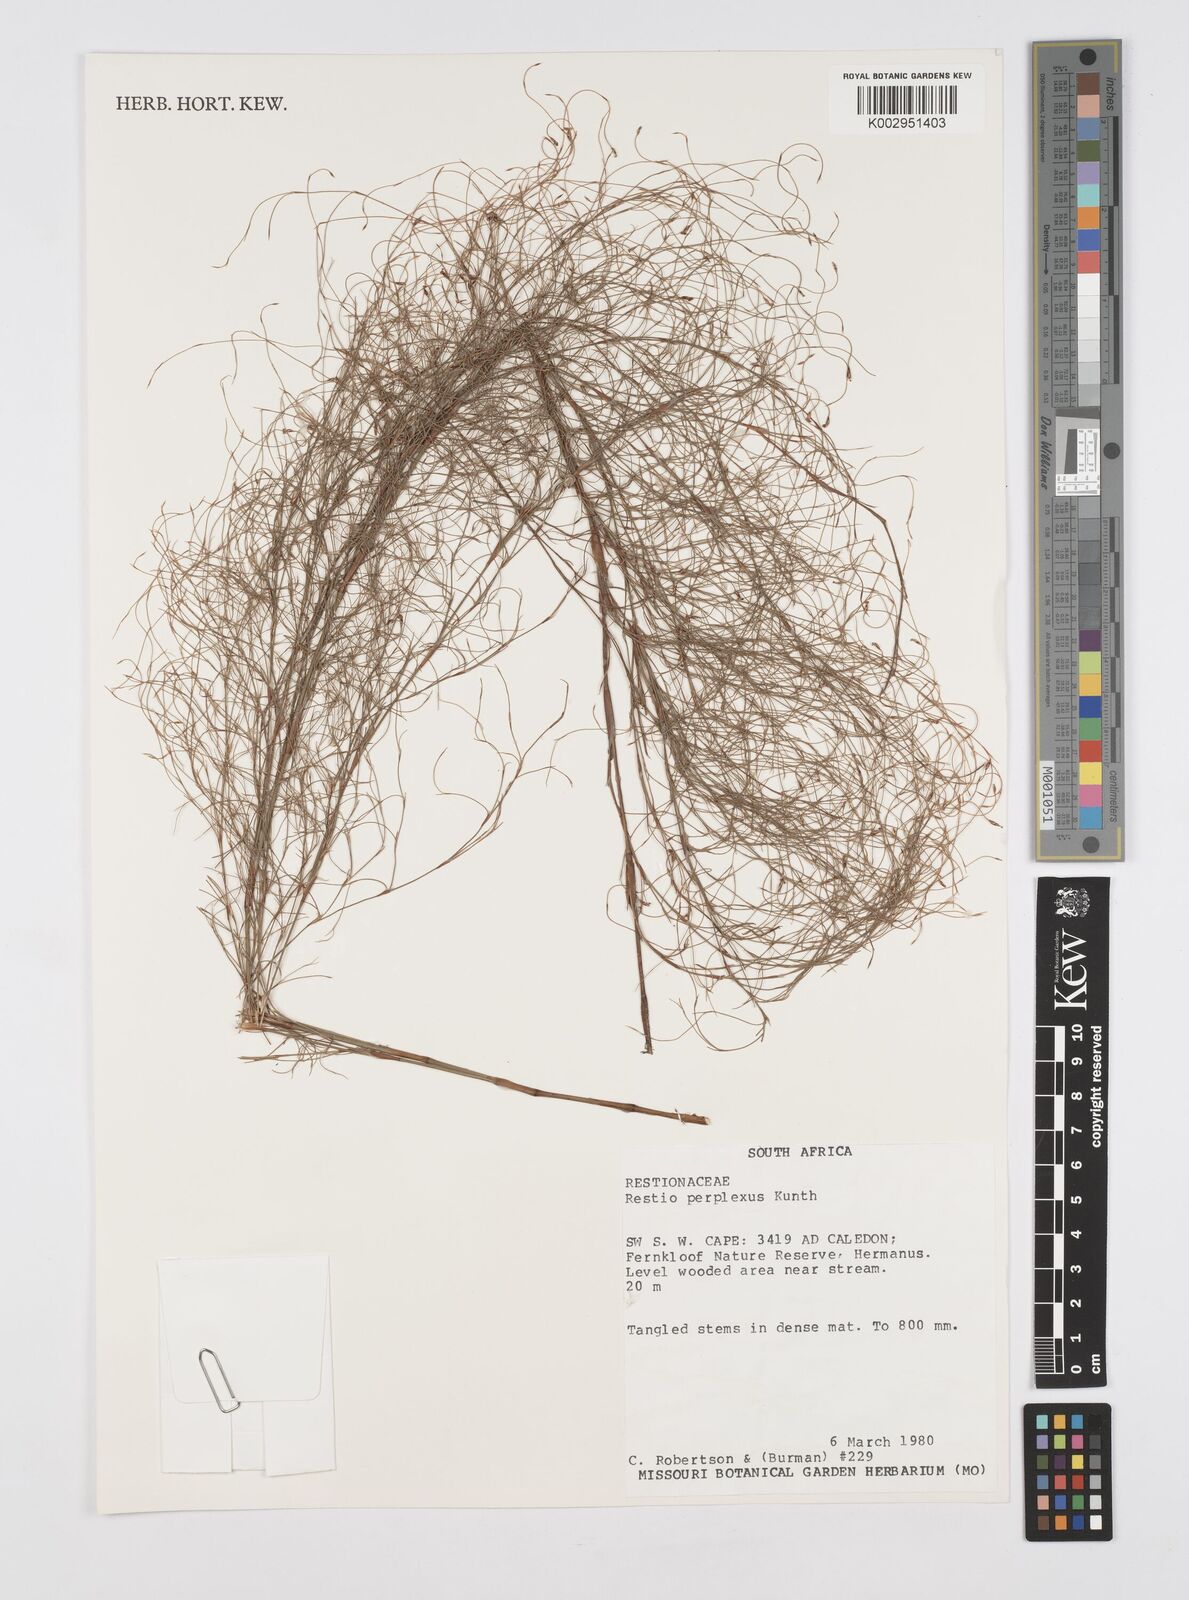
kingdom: Plantae
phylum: Tracheophyta
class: Liliopsida
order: Poales
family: Restionaceae
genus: Restio
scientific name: Restio perplexus
